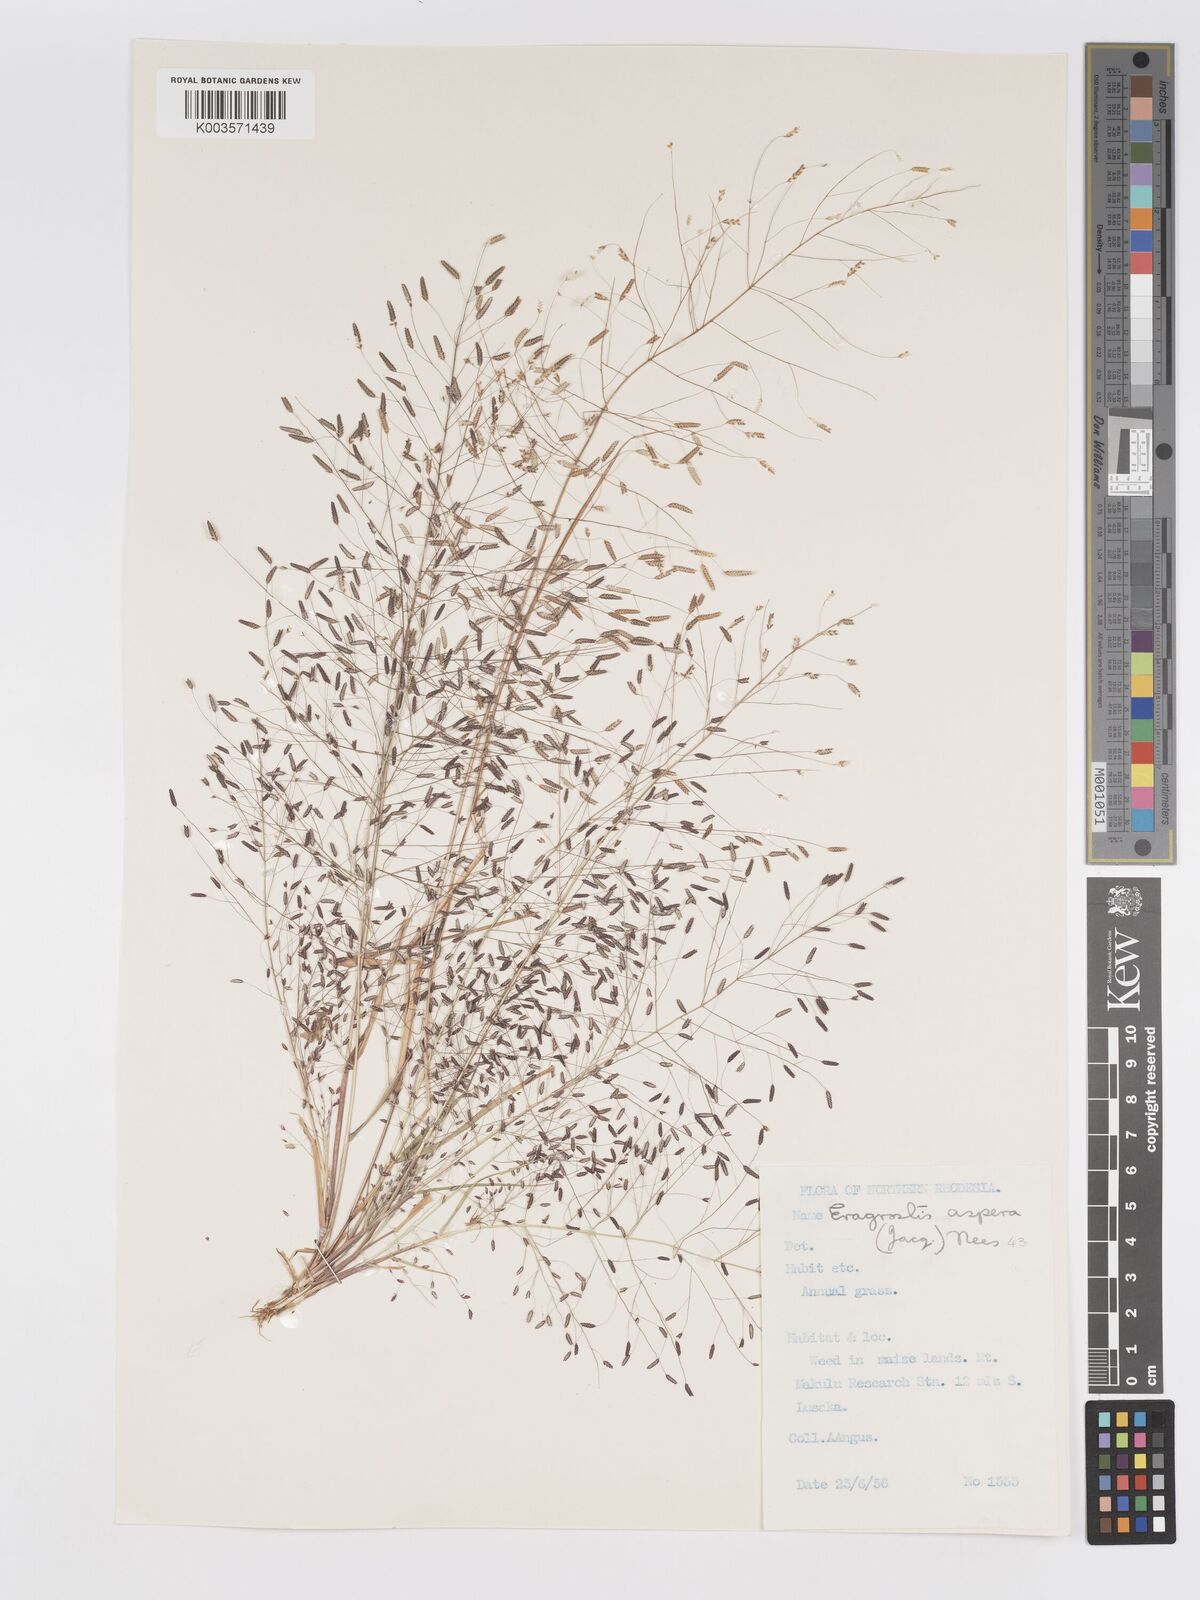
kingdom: Plantae
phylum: Tracheophyta
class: Liliopsida
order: Poales
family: Poaceae
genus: Eragrostis
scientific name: Eragrostis aspera
